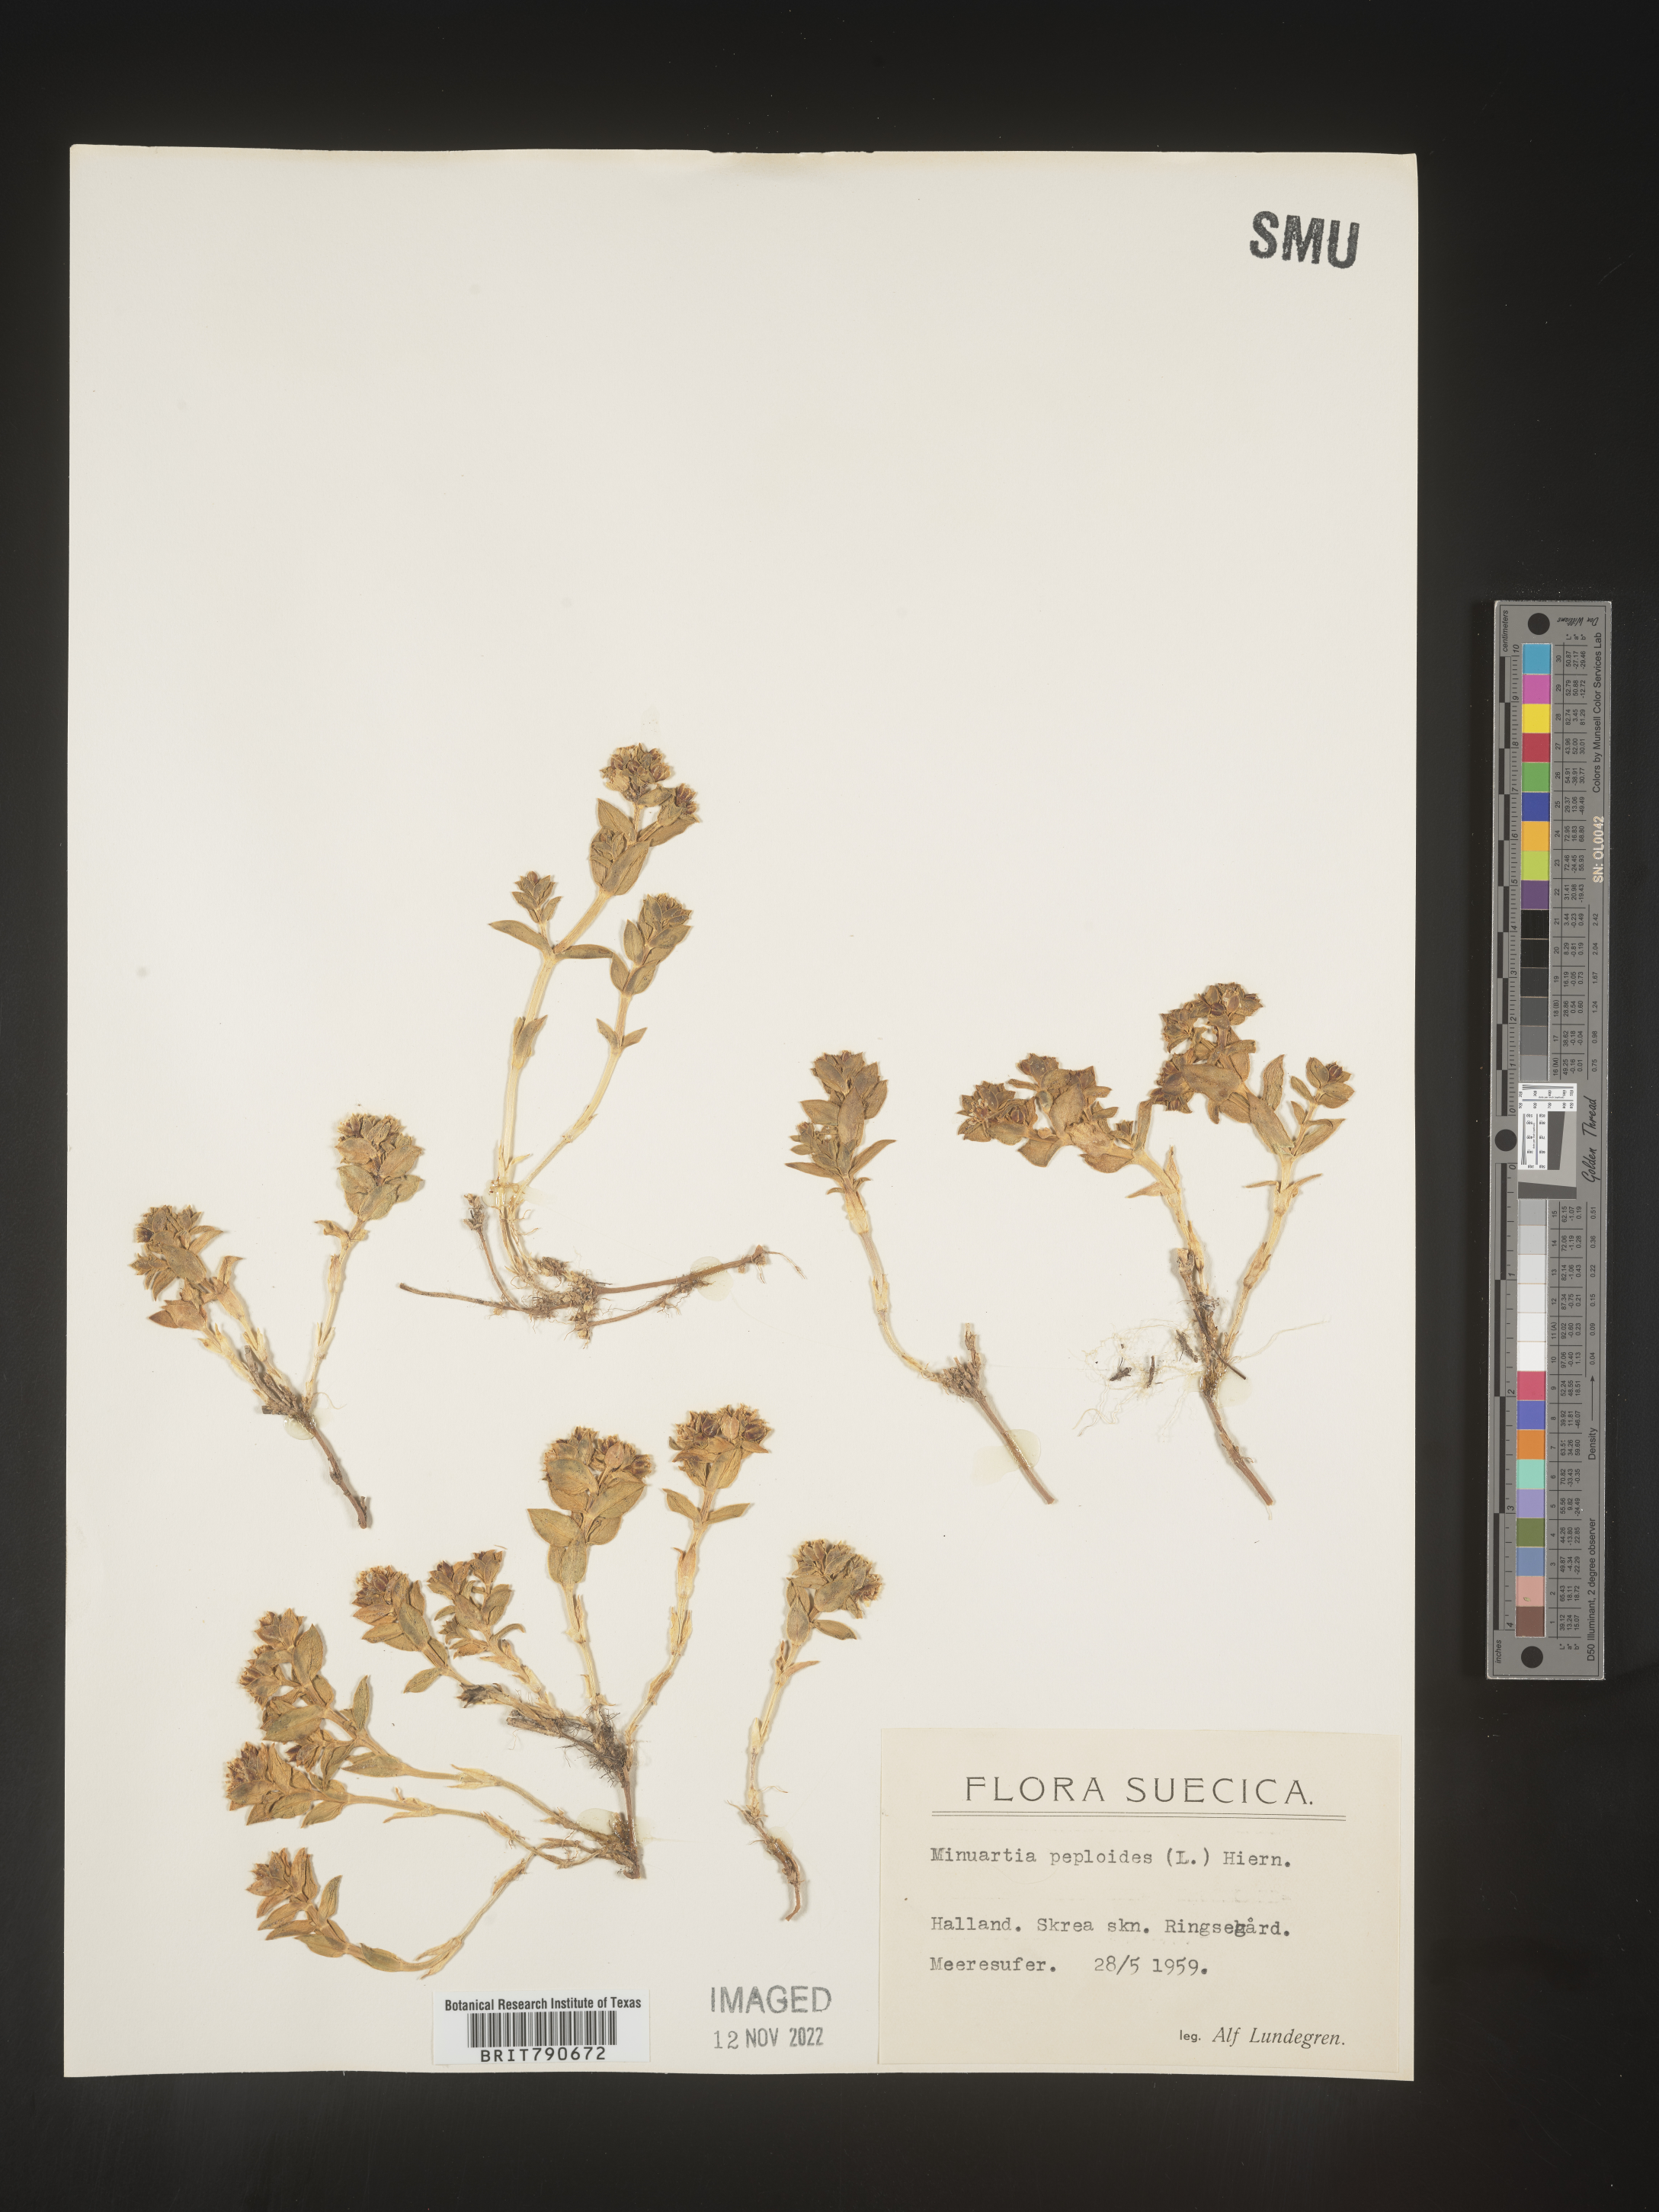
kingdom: Plantae
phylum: Tracheophyta
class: Magnoliopsida
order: Malvales
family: Malvaceae
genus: Clappertonia
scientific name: Clappertonia
